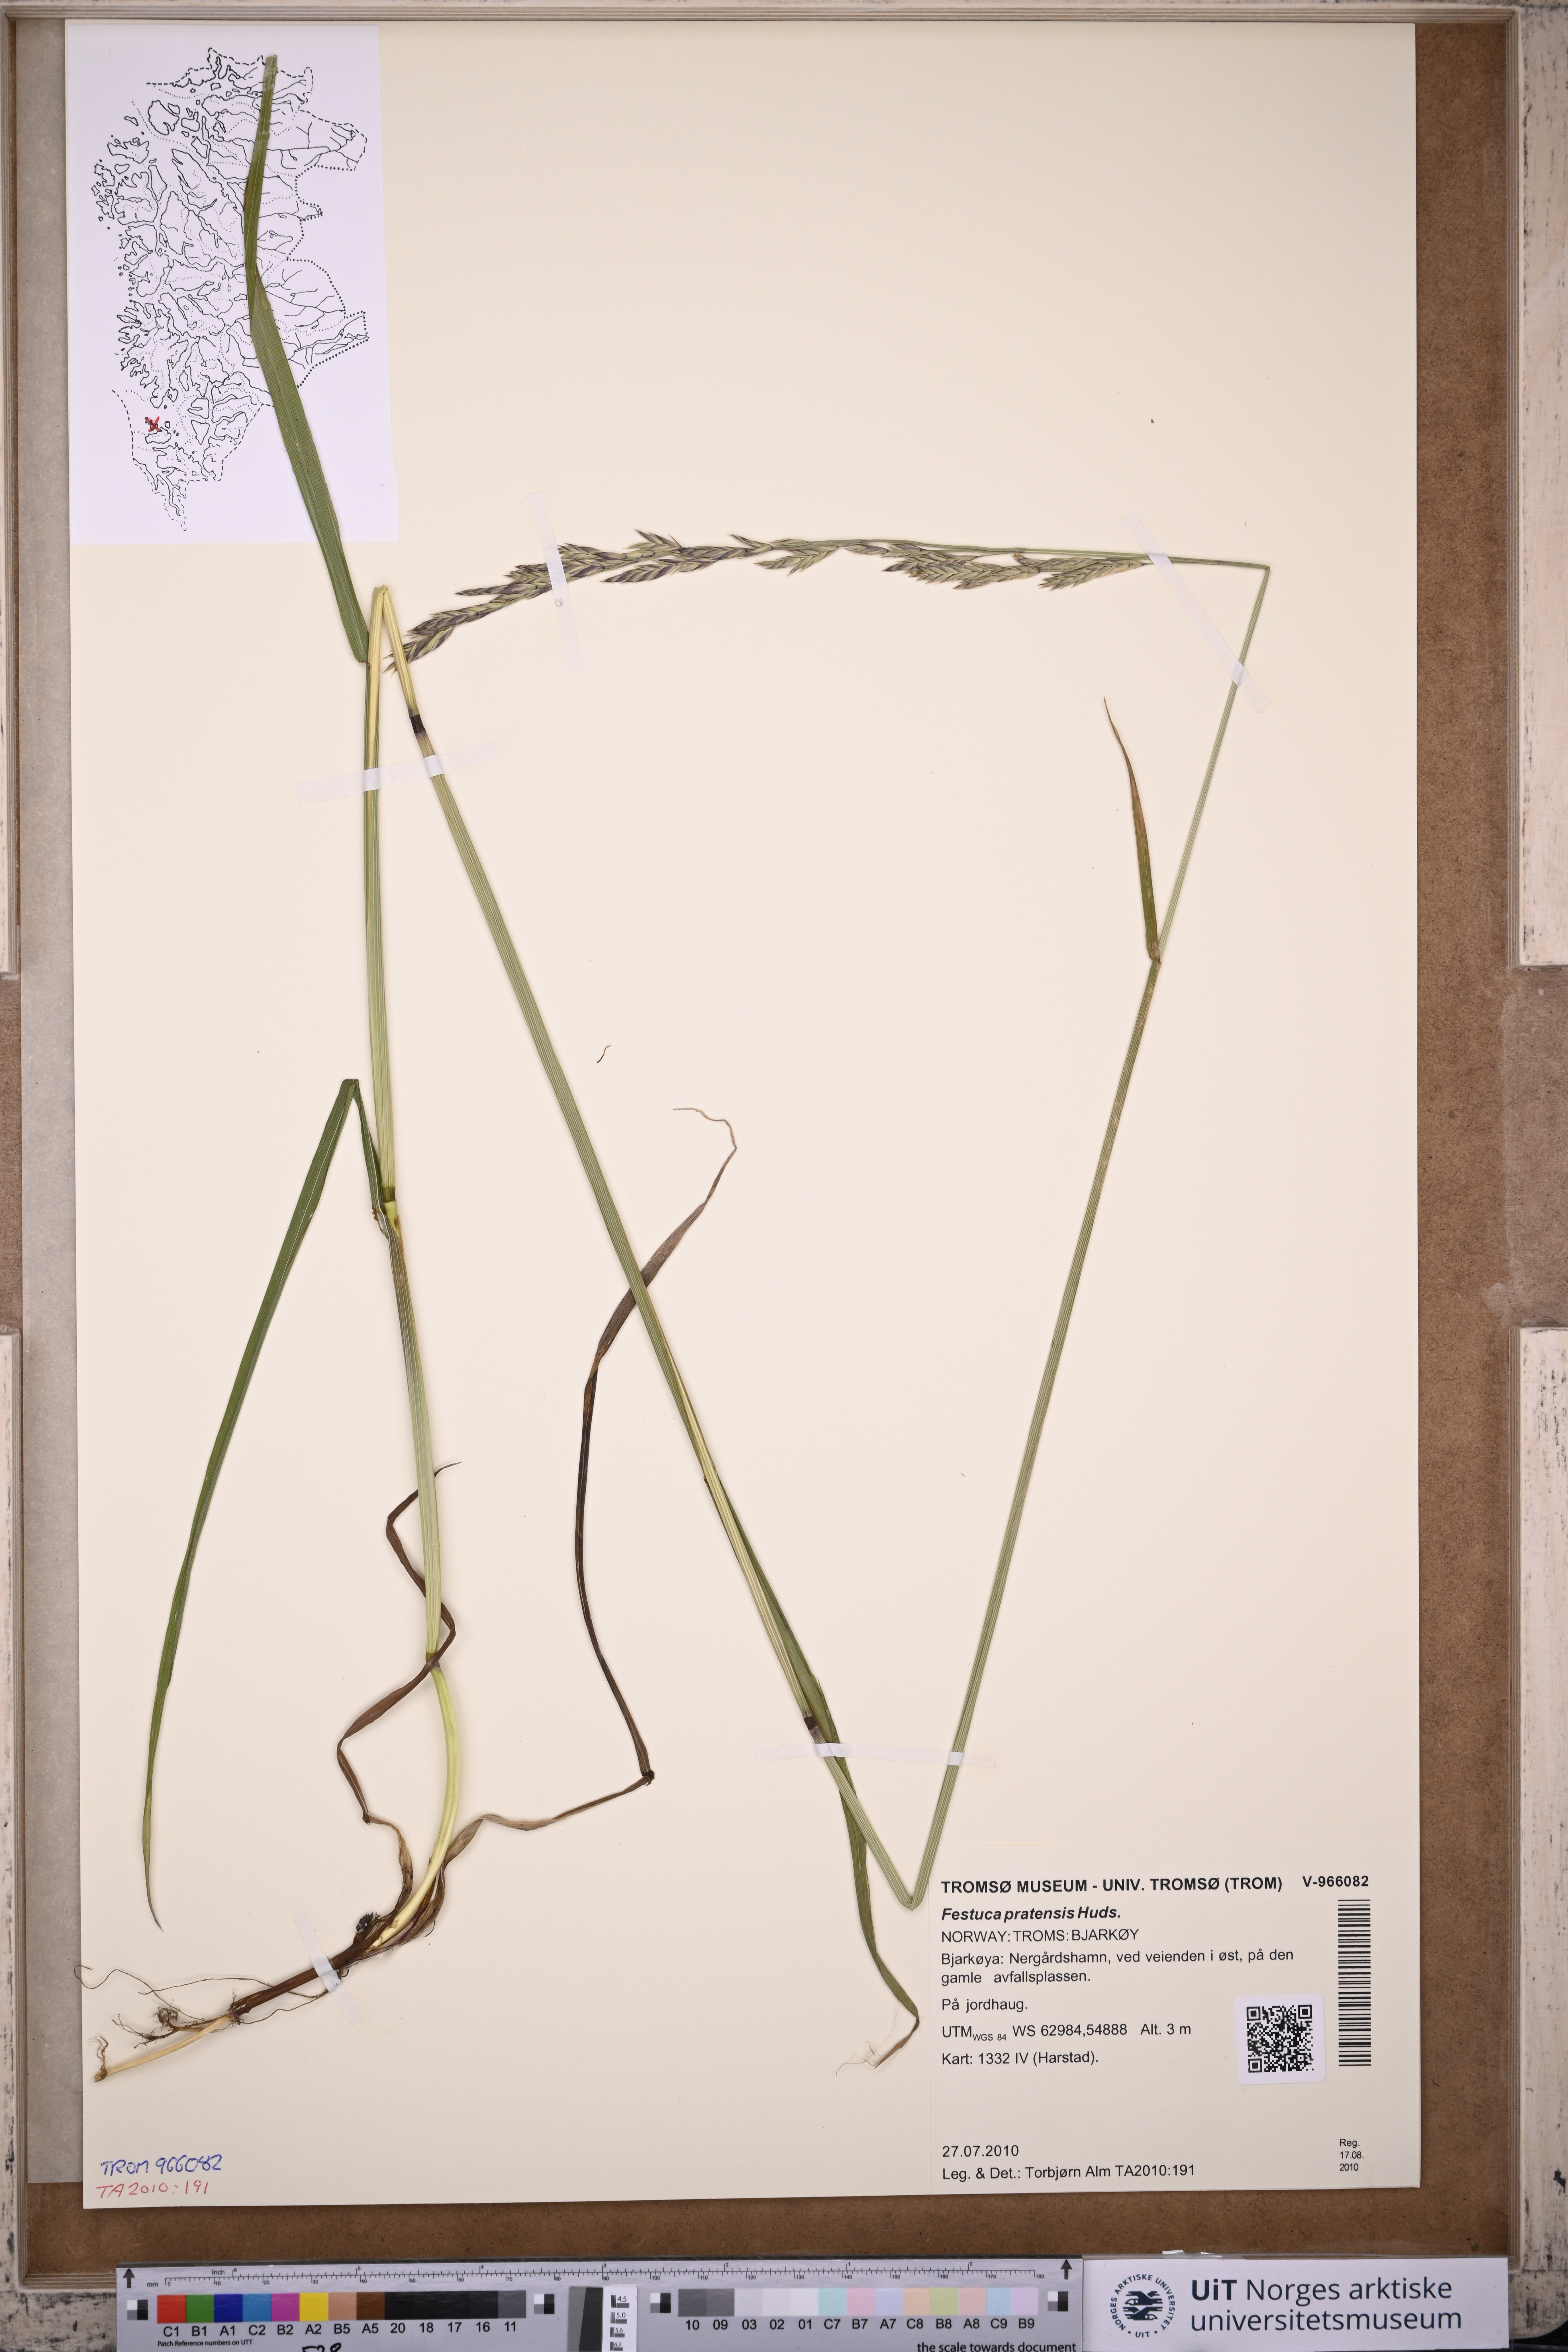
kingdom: Plantae
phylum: Tracheophyta
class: Liliopsida
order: Poales
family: Poaceae
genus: Lolium
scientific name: Lolium pratense
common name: Dover grass
